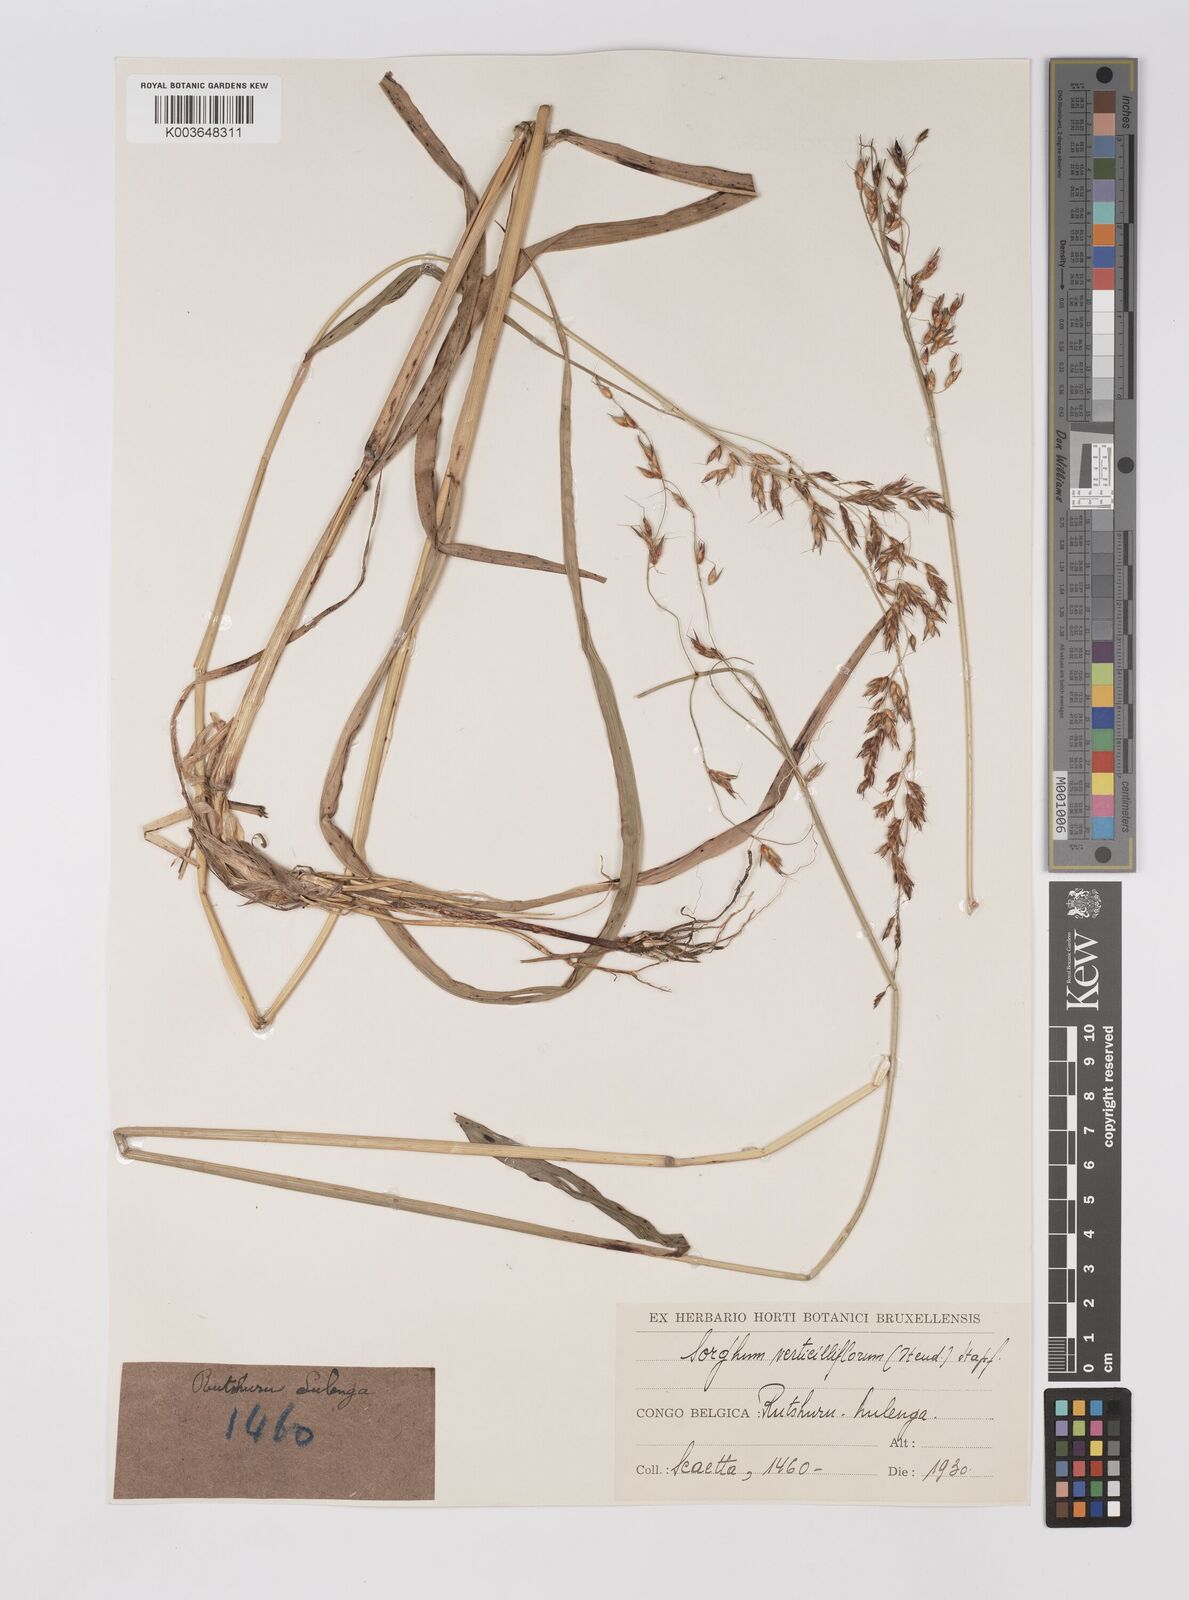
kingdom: Plantae
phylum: Tracheophyta
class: Liliopsida
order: Poales
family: Poaceae
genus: Sorghum
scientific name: Sorghum arundinaceum
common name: Sorghum
